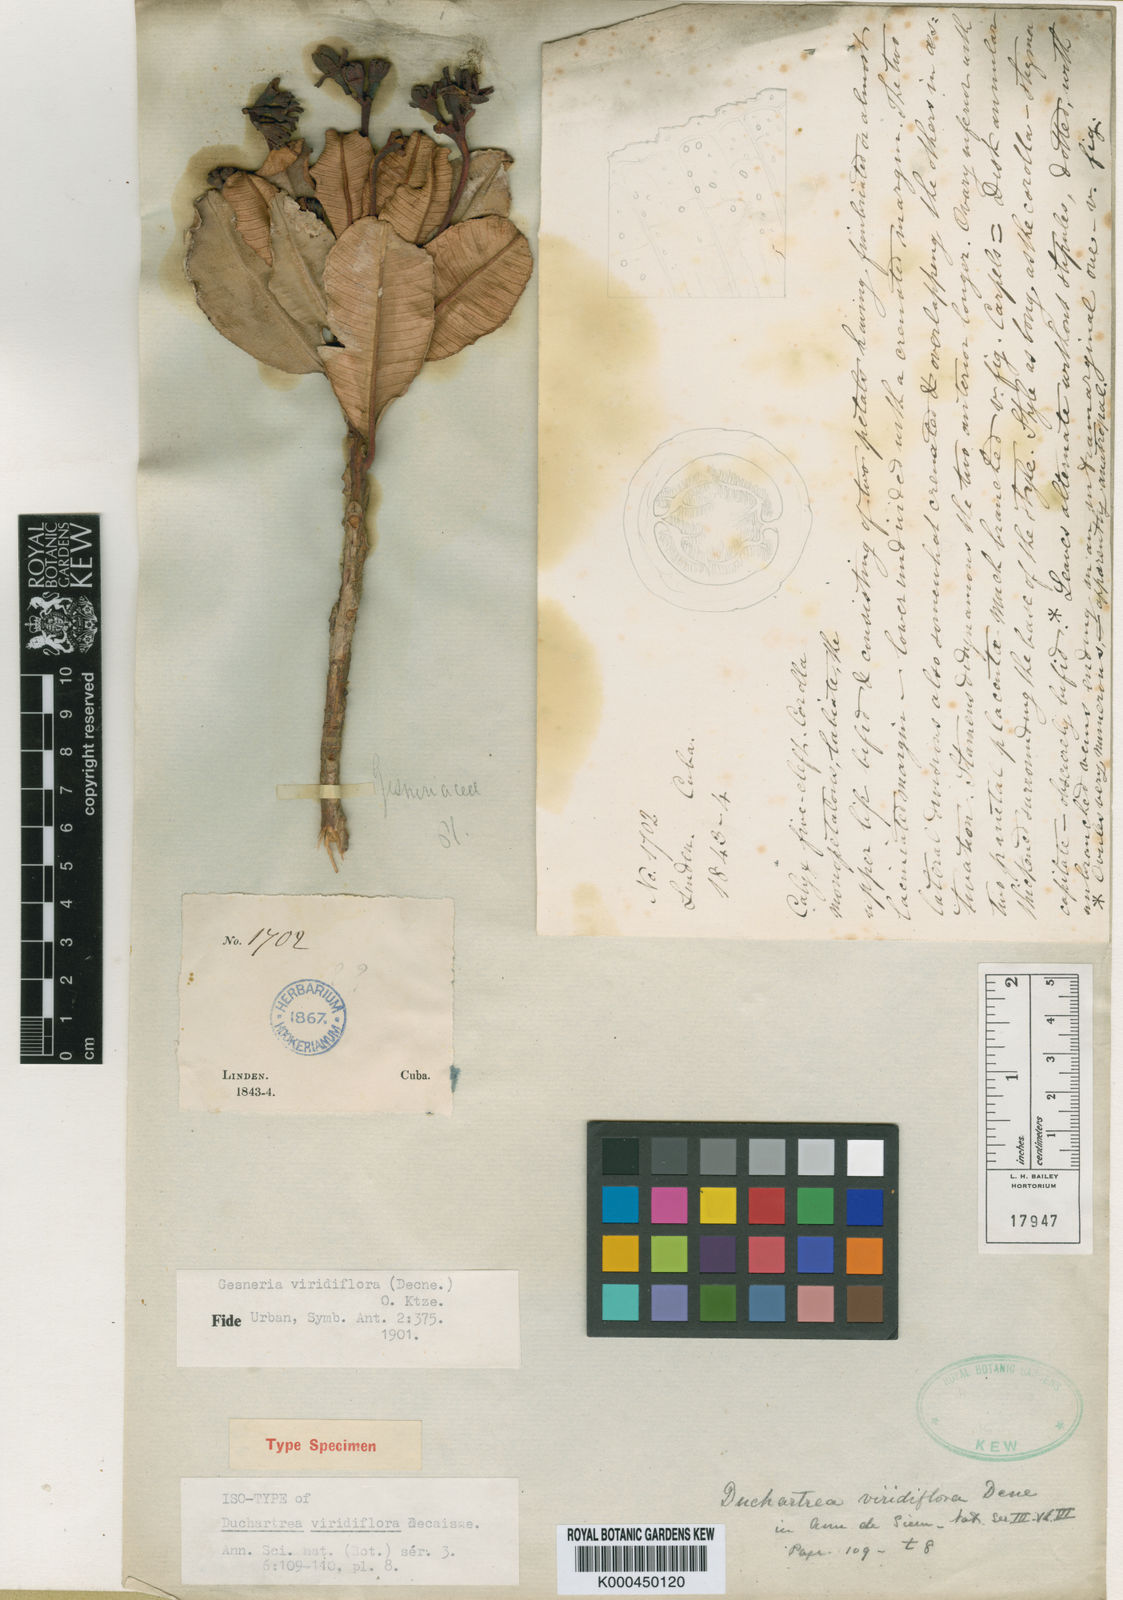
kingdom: Plantae
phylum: Tracheophyta
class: Magnoliopsida
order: Lamiales
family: Gesneriaceae
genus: Gesneria
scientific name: Gesneria viridiflora
